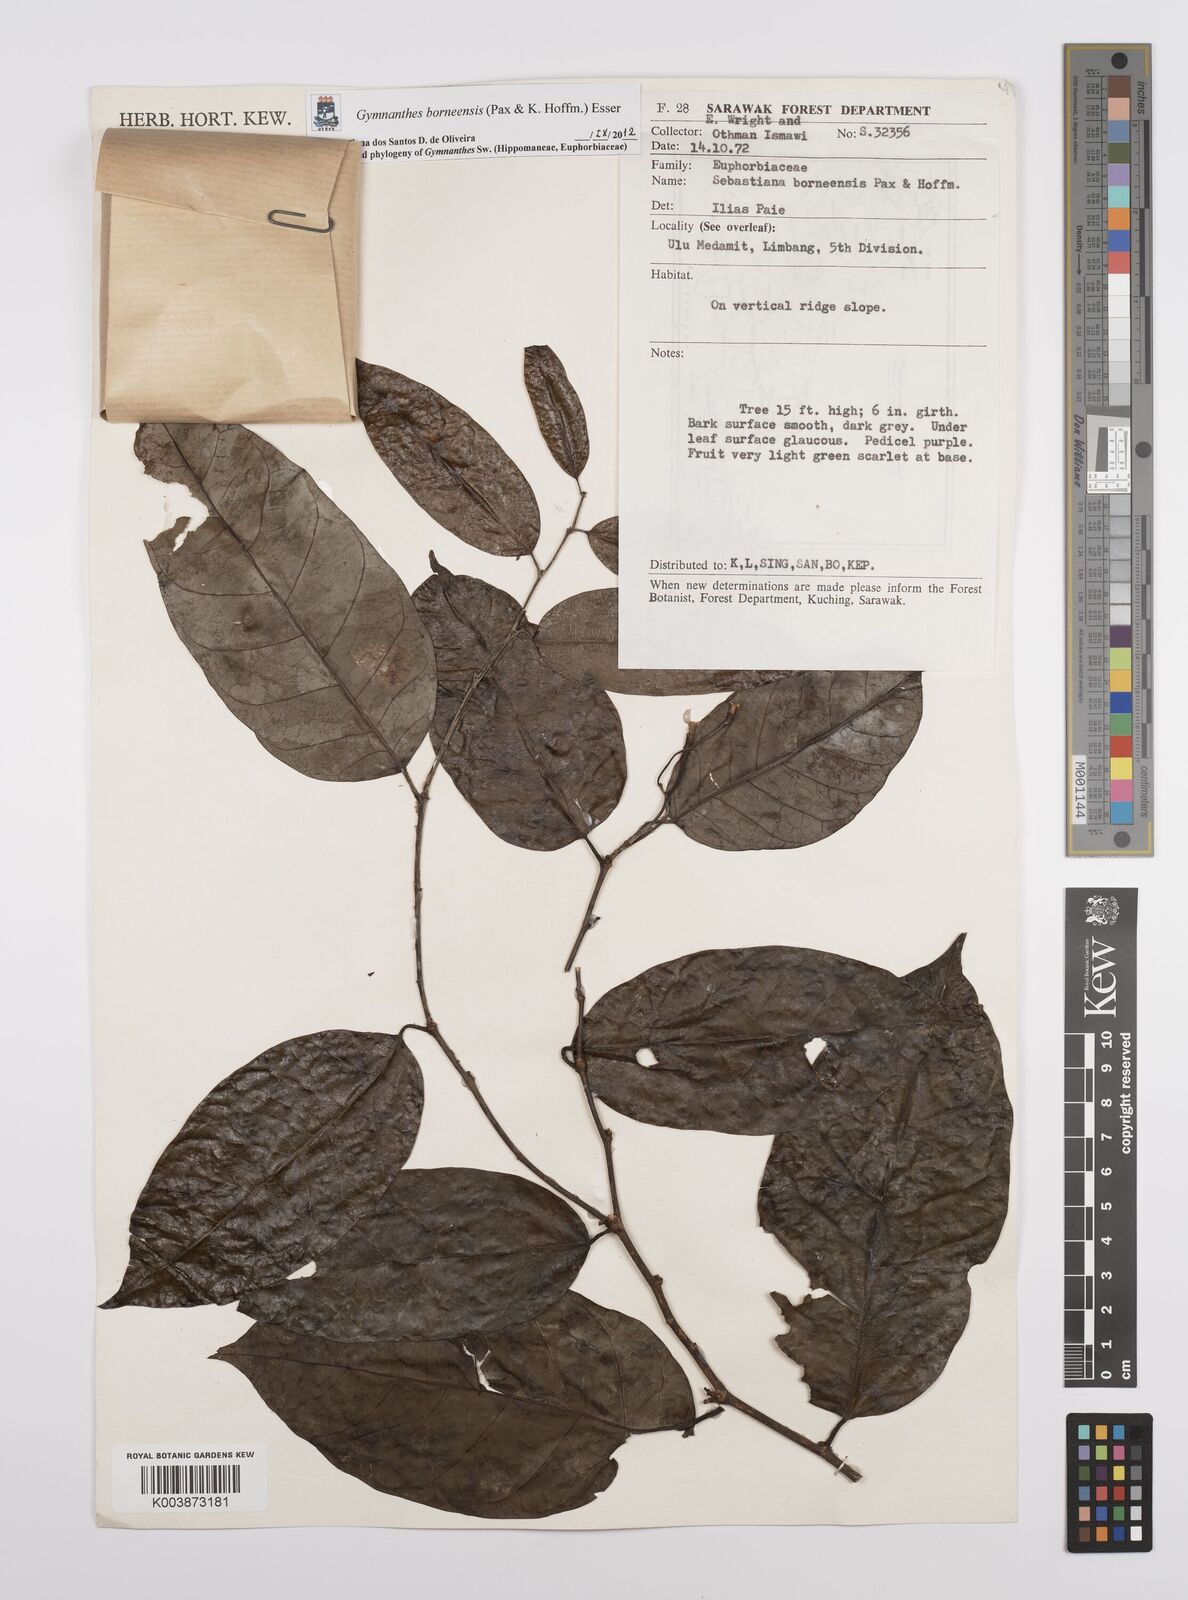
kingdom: Plantae
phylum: Tracheophyta
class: Magnoliopsida
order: Malpighiales
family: Euphorbiaceae
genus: Gymnanthes
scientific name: Gymnanthes borneensis
